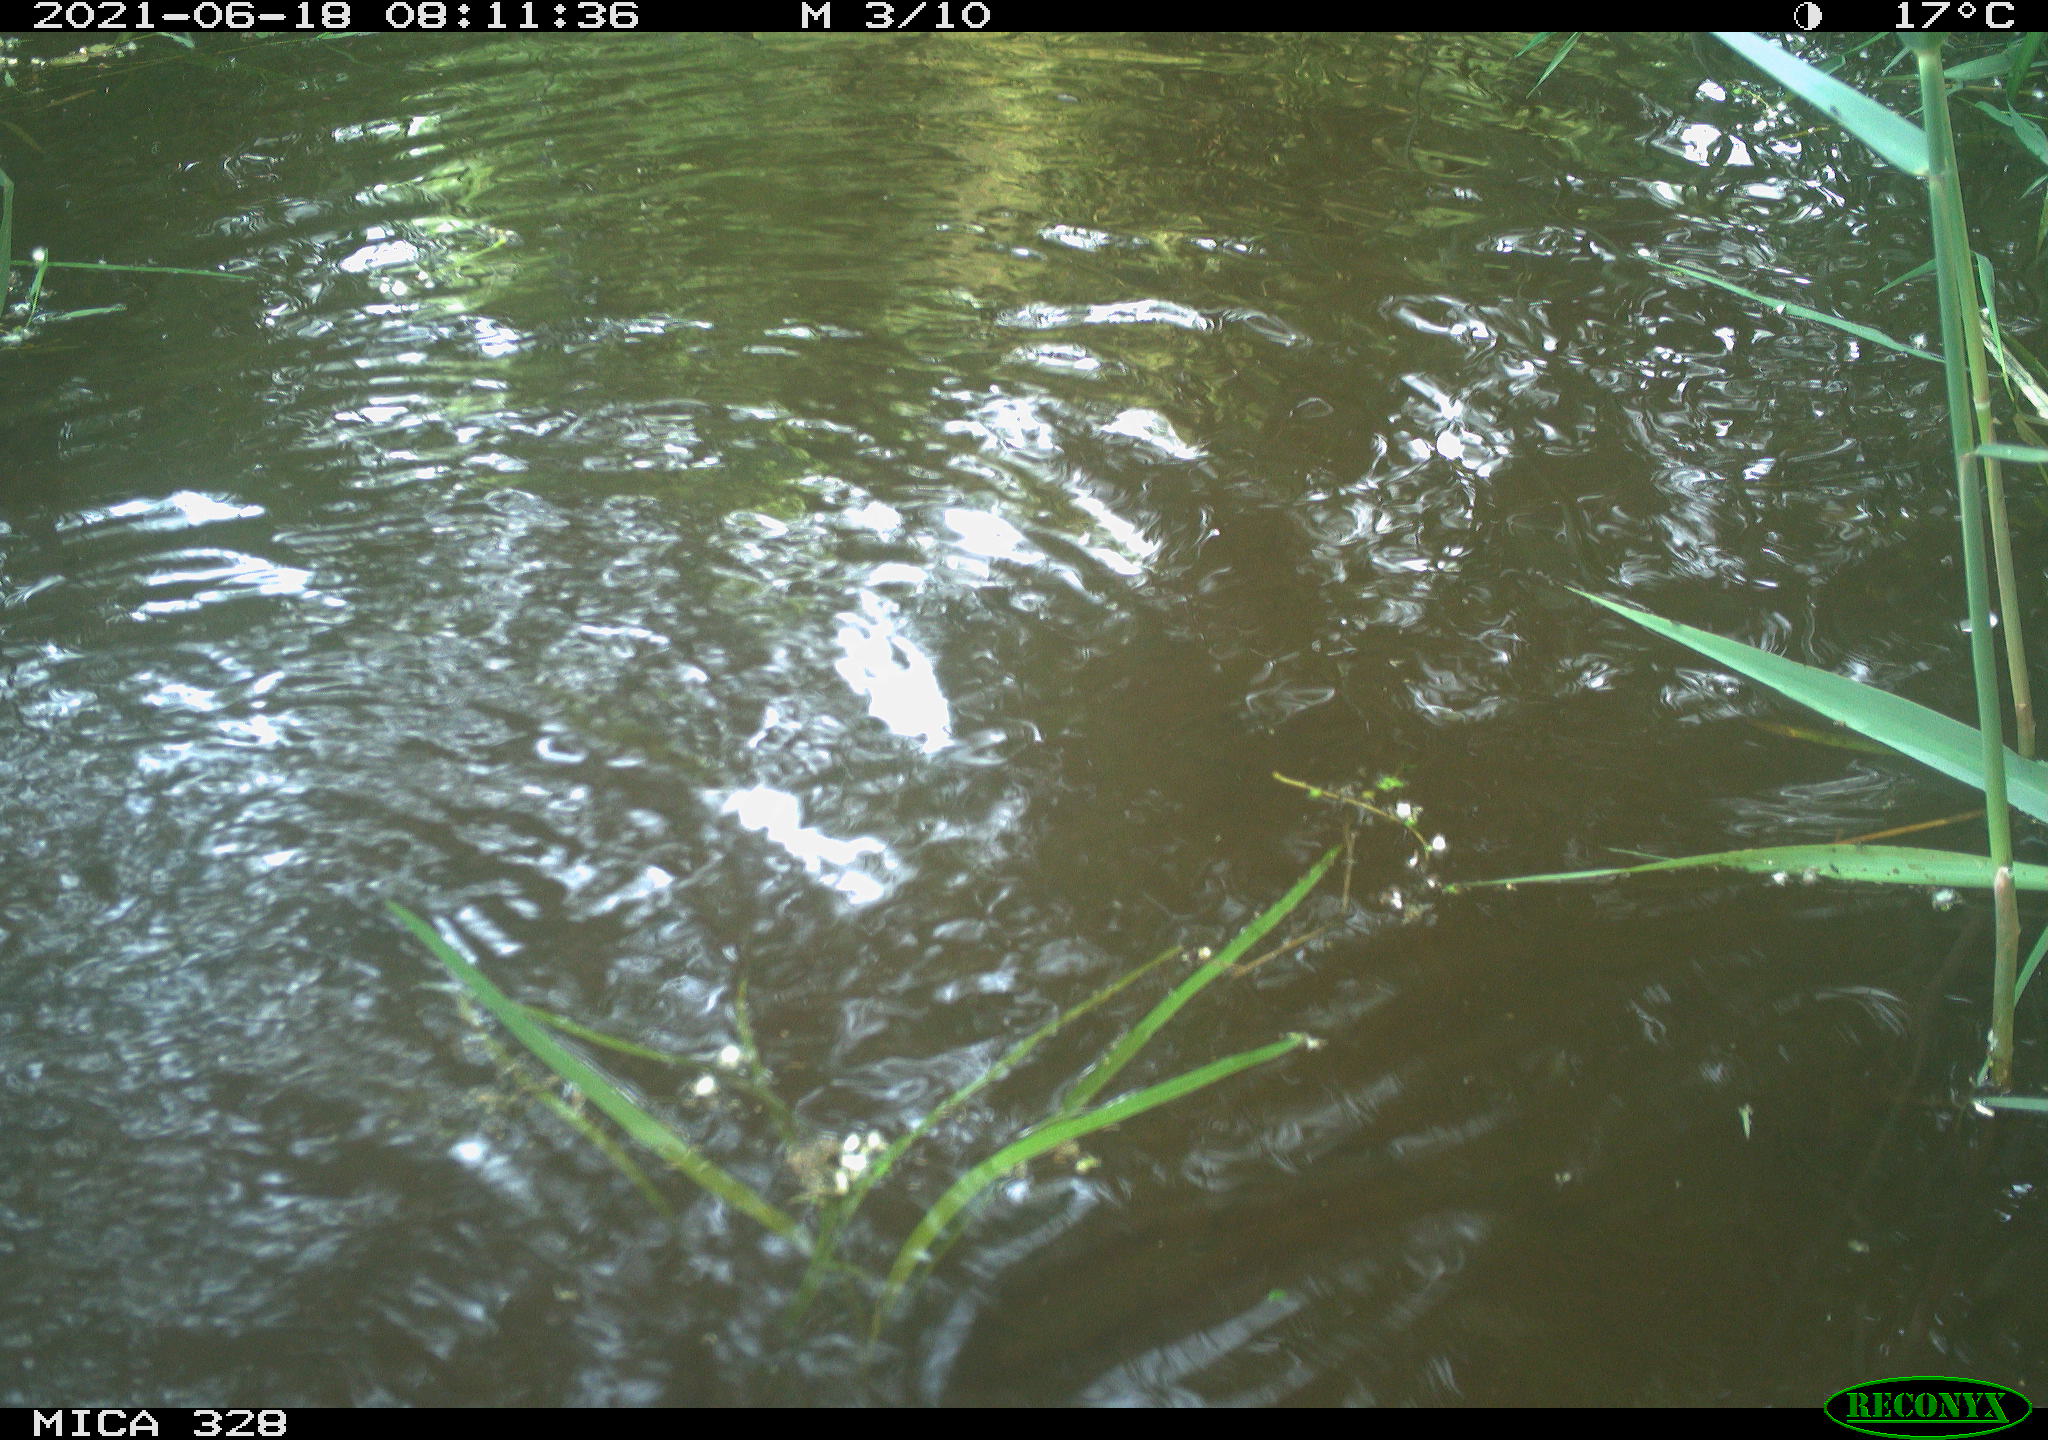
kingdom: Animalia
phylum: Chordata
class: Aves
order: Anseriformes
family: Anatidae
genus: Aix
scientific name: Aix galericulata
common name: Mandarin duck
